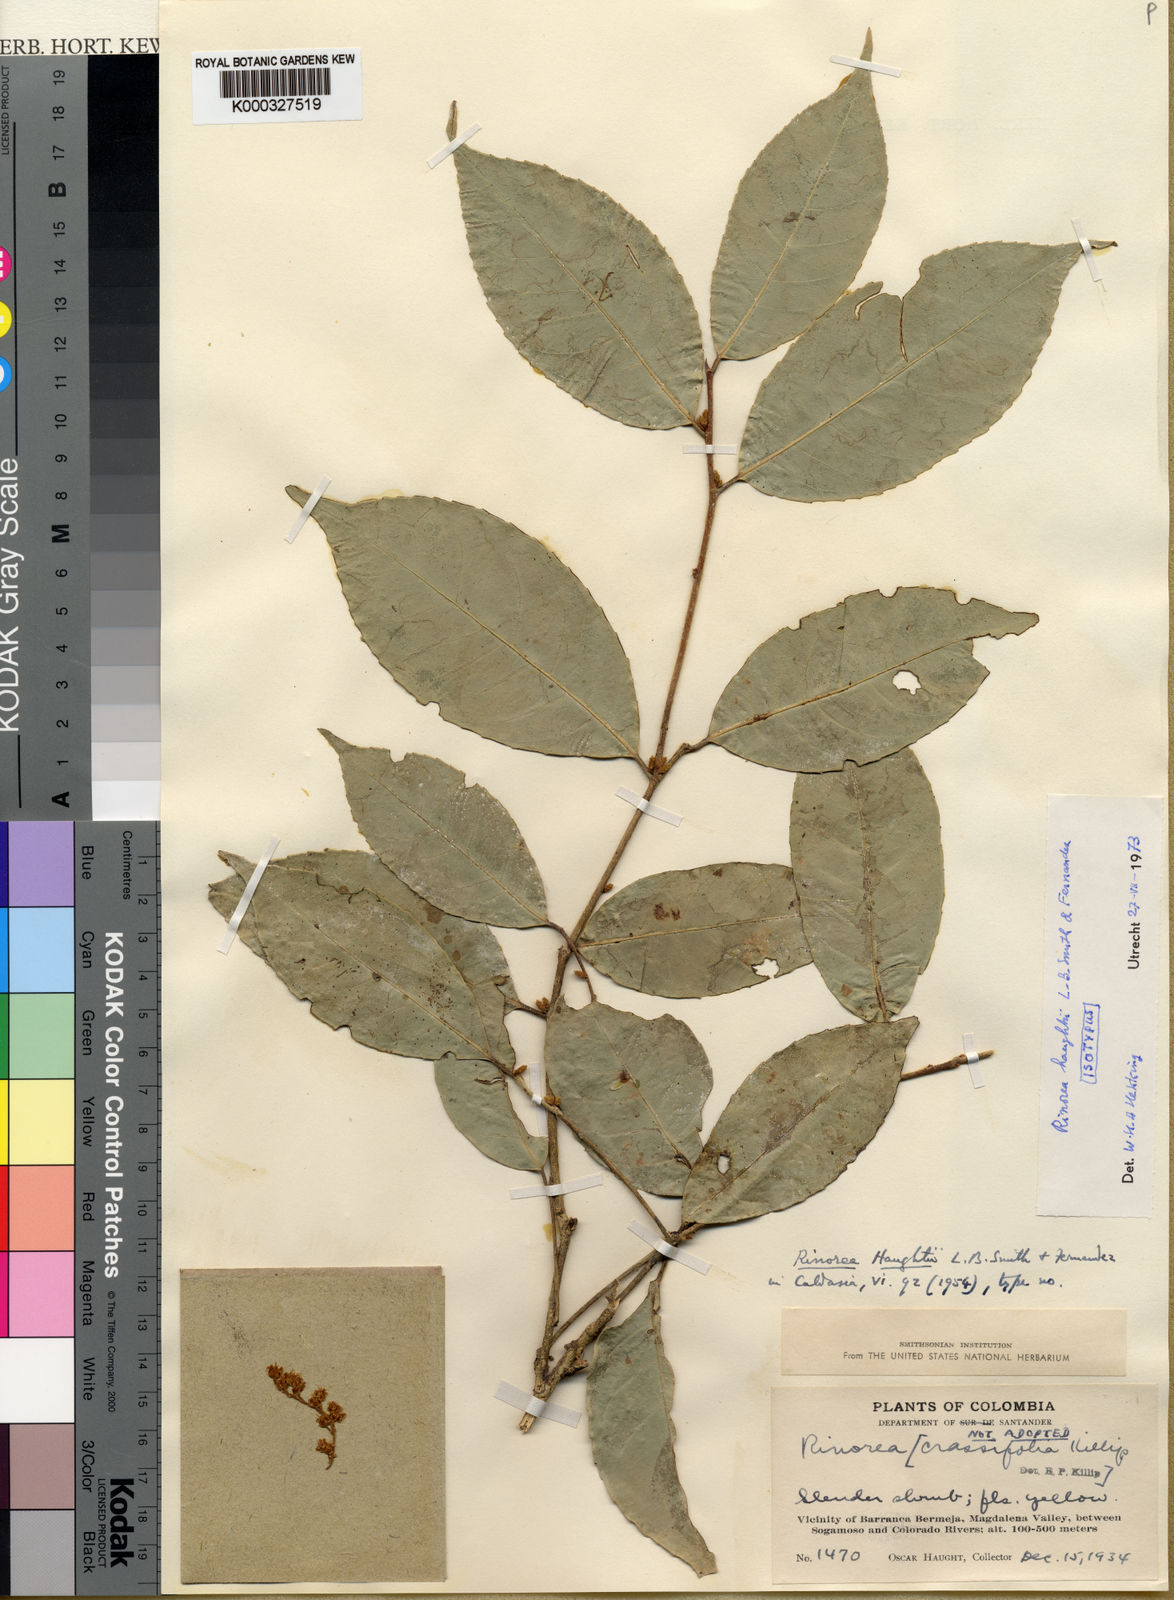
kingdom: Plantae
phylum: Tracheophyta
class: Magnoliopsida
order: Malpighiales
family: Violaceae
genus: Rinorea
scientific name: Rinorea
